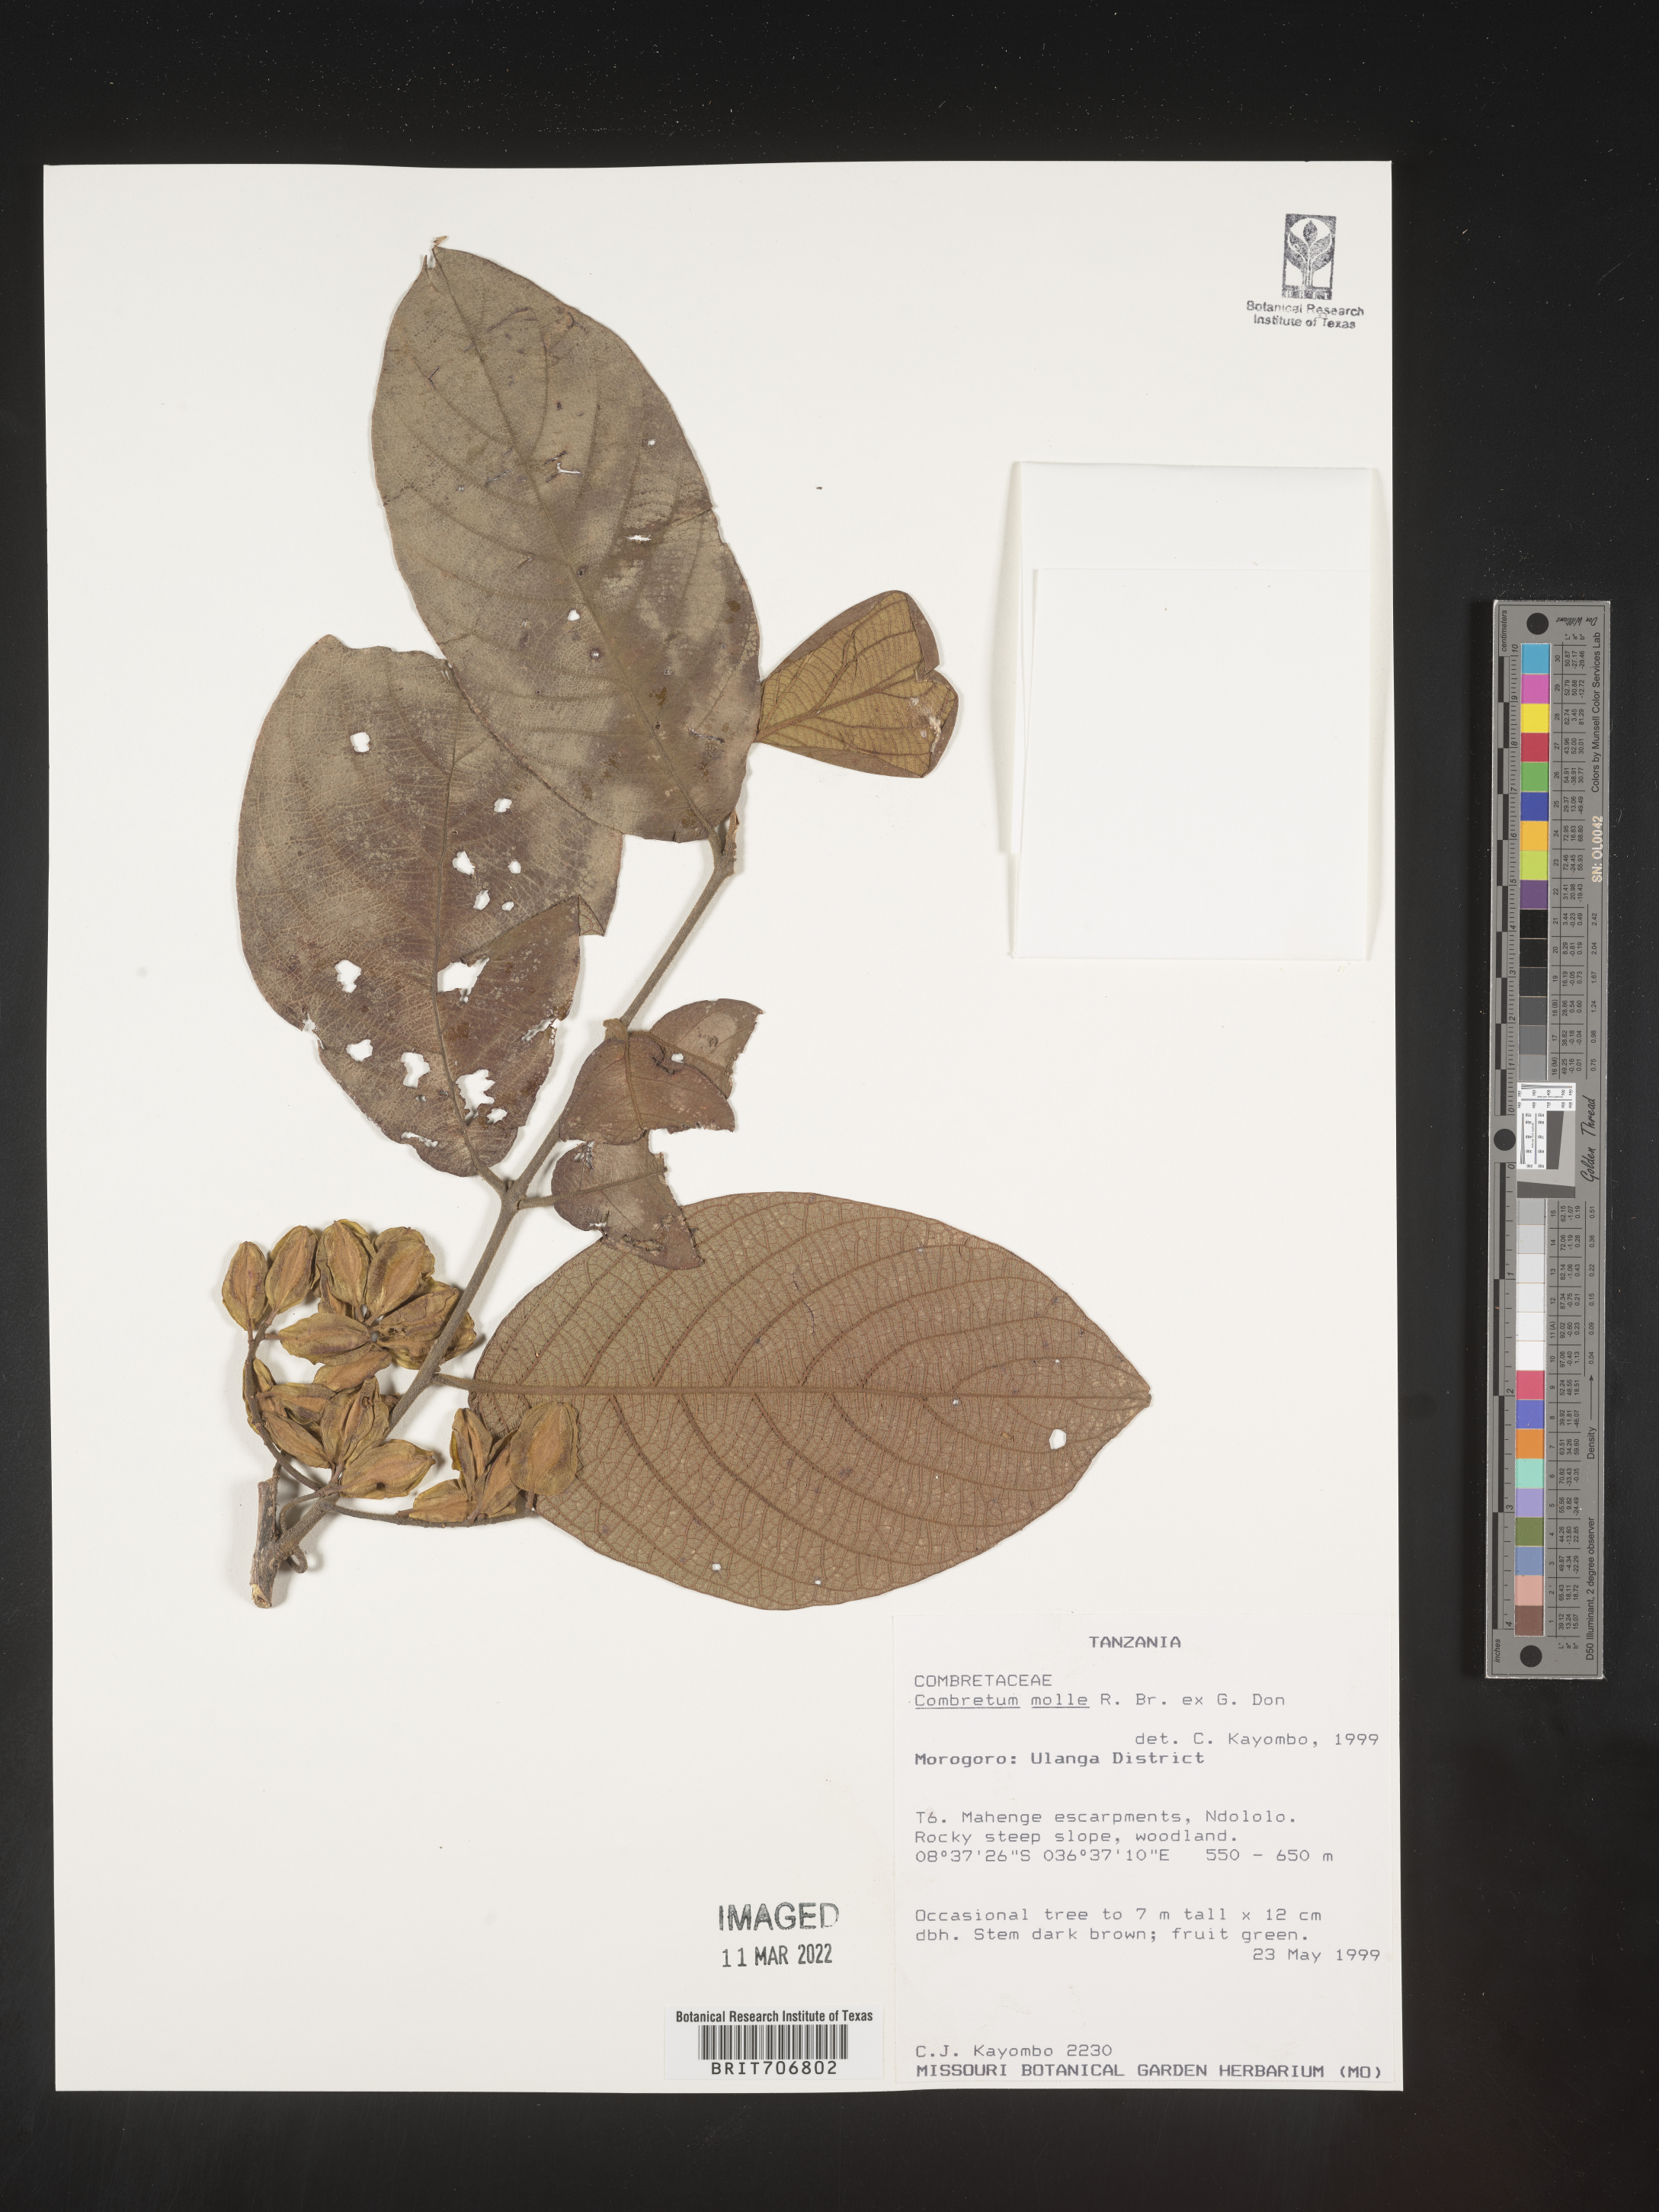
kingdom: Plantae
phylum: Tracheophyta
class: Magnoliopsida
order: Myrtales
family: Combretaceae
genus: Combretum
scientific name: Combretum
